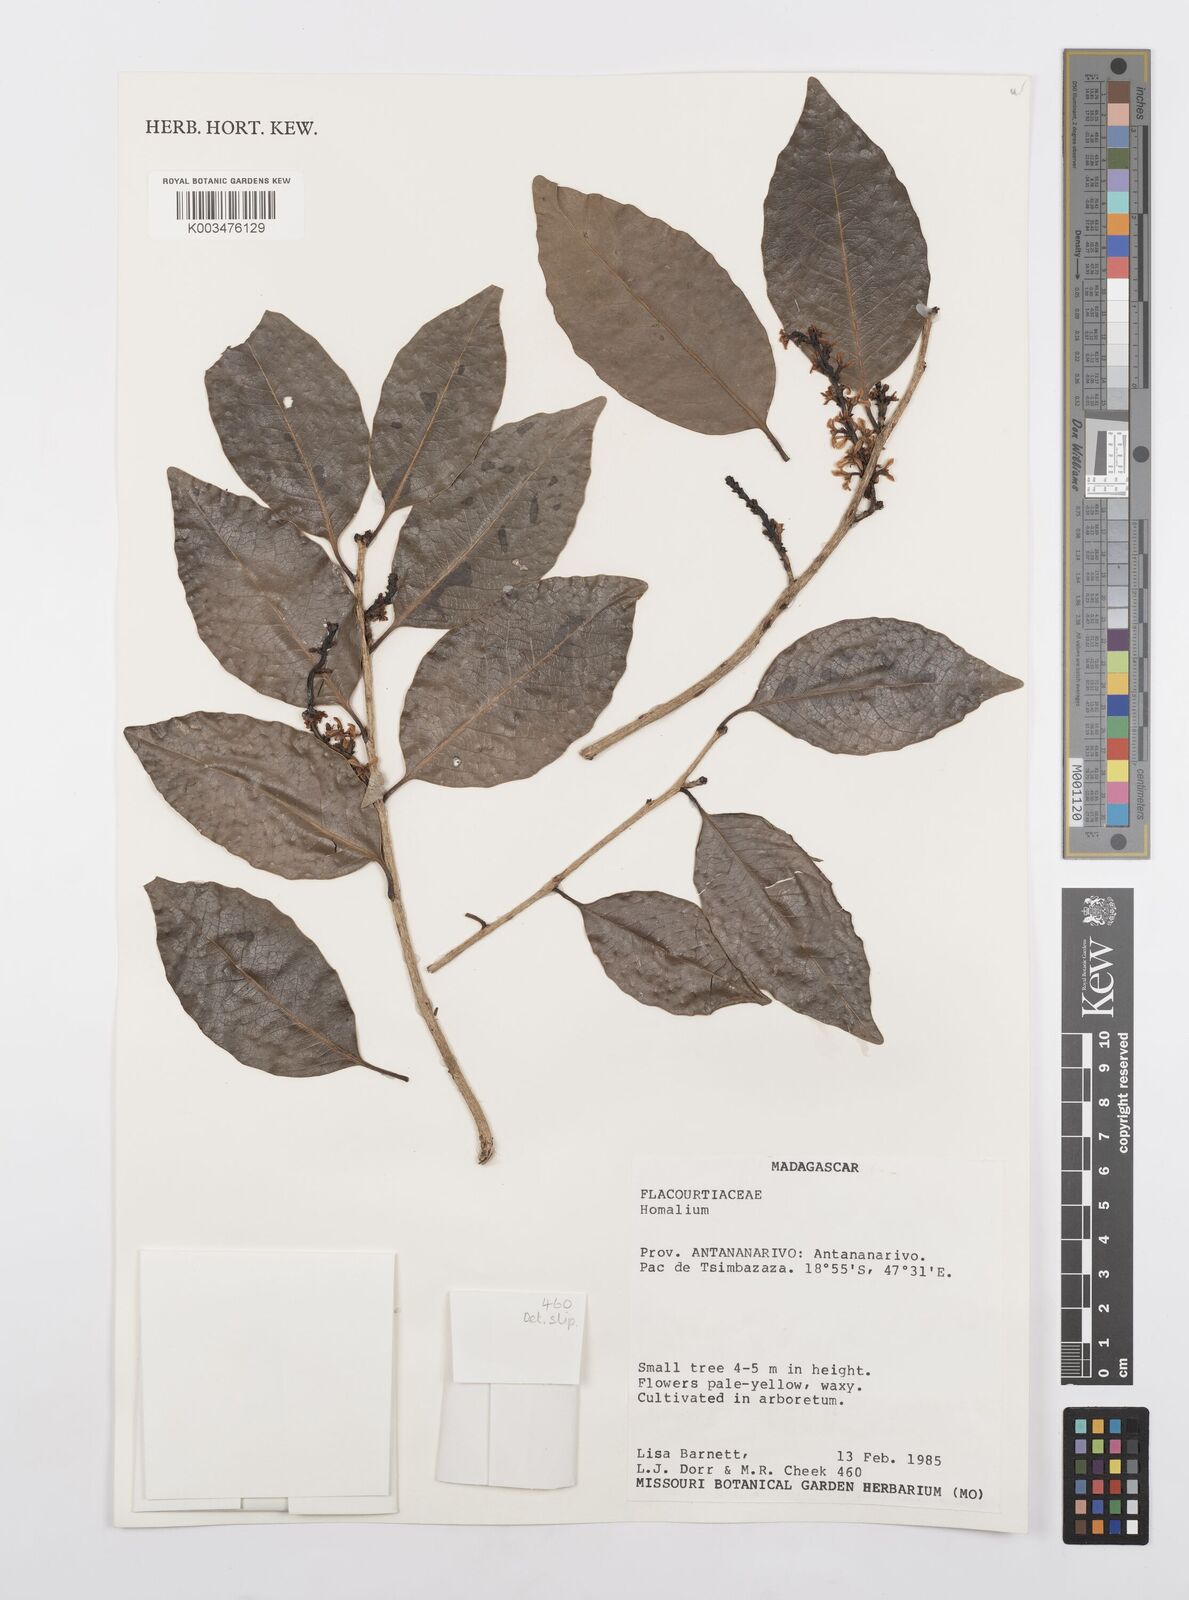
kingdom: Plantae
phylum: Tracheophyta
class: Magnoliopsida
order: Malpighiales
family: Salicaceae
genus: Homalium
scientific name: Homalium
